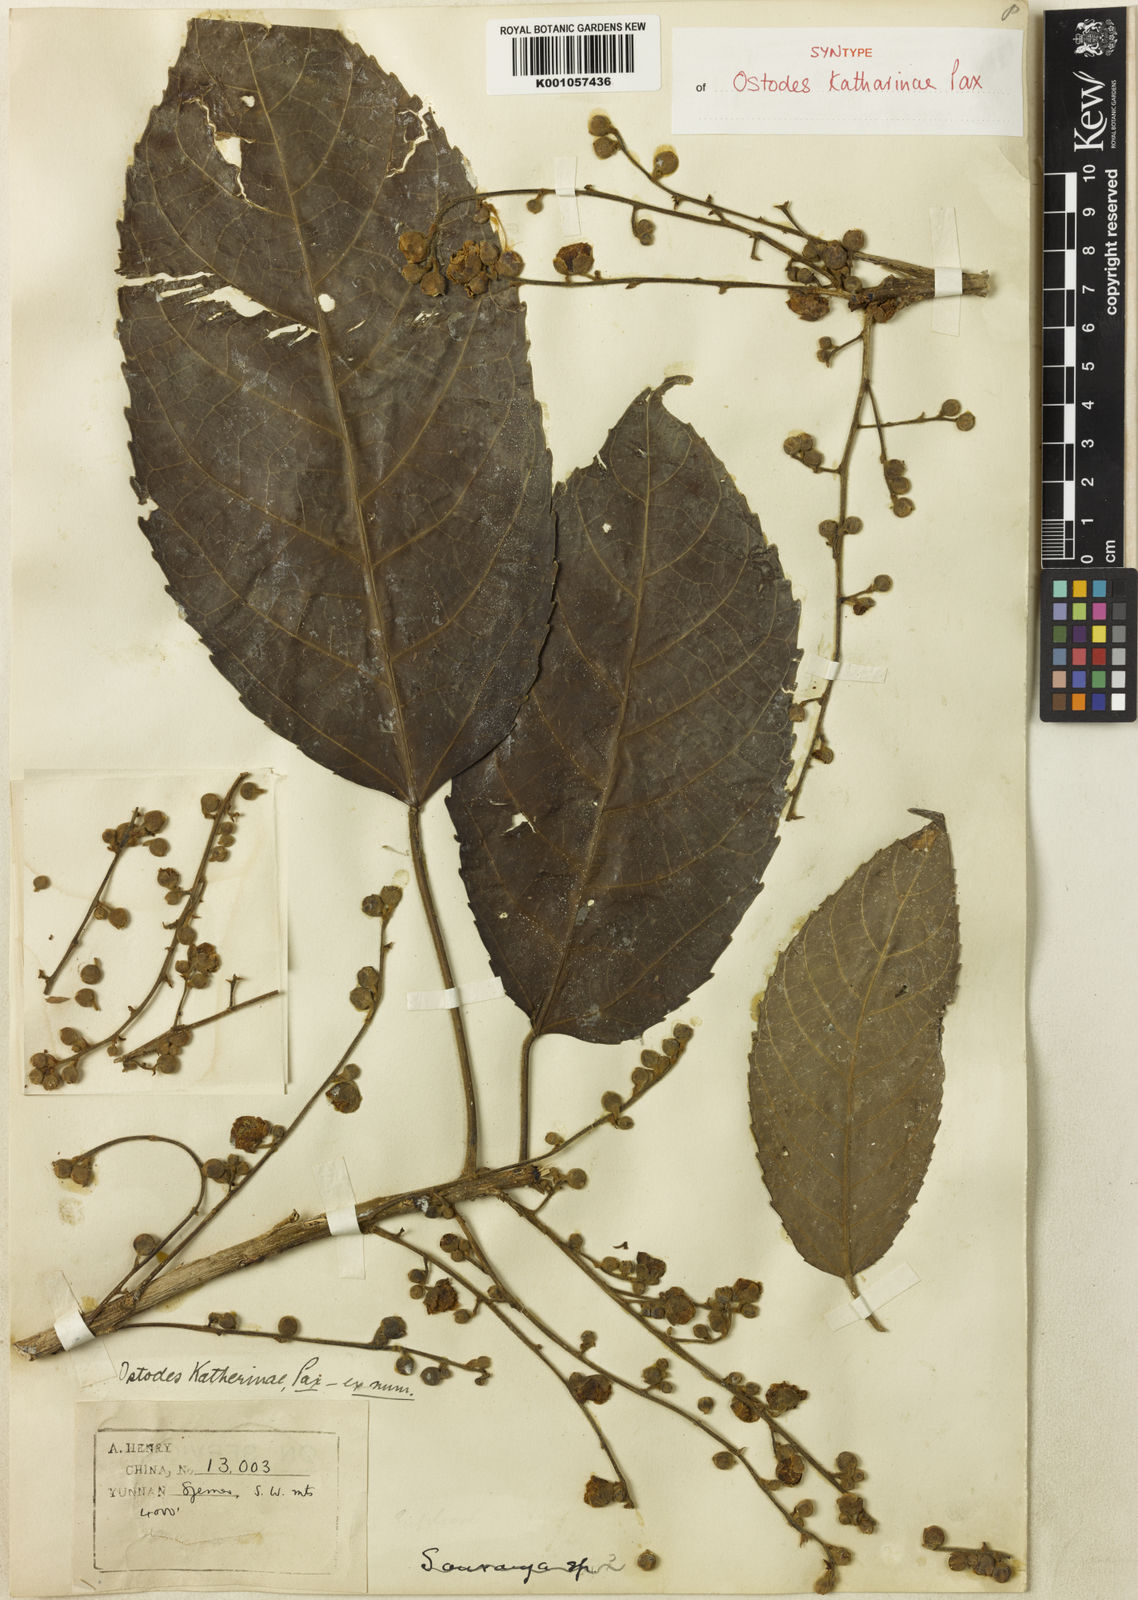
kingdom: Plantae
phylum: Tracheophyta
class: Magnoliopsida
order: Malpighiales
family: Euphorbiaceae
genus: Ostodes
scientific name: Ostodes paniculata
